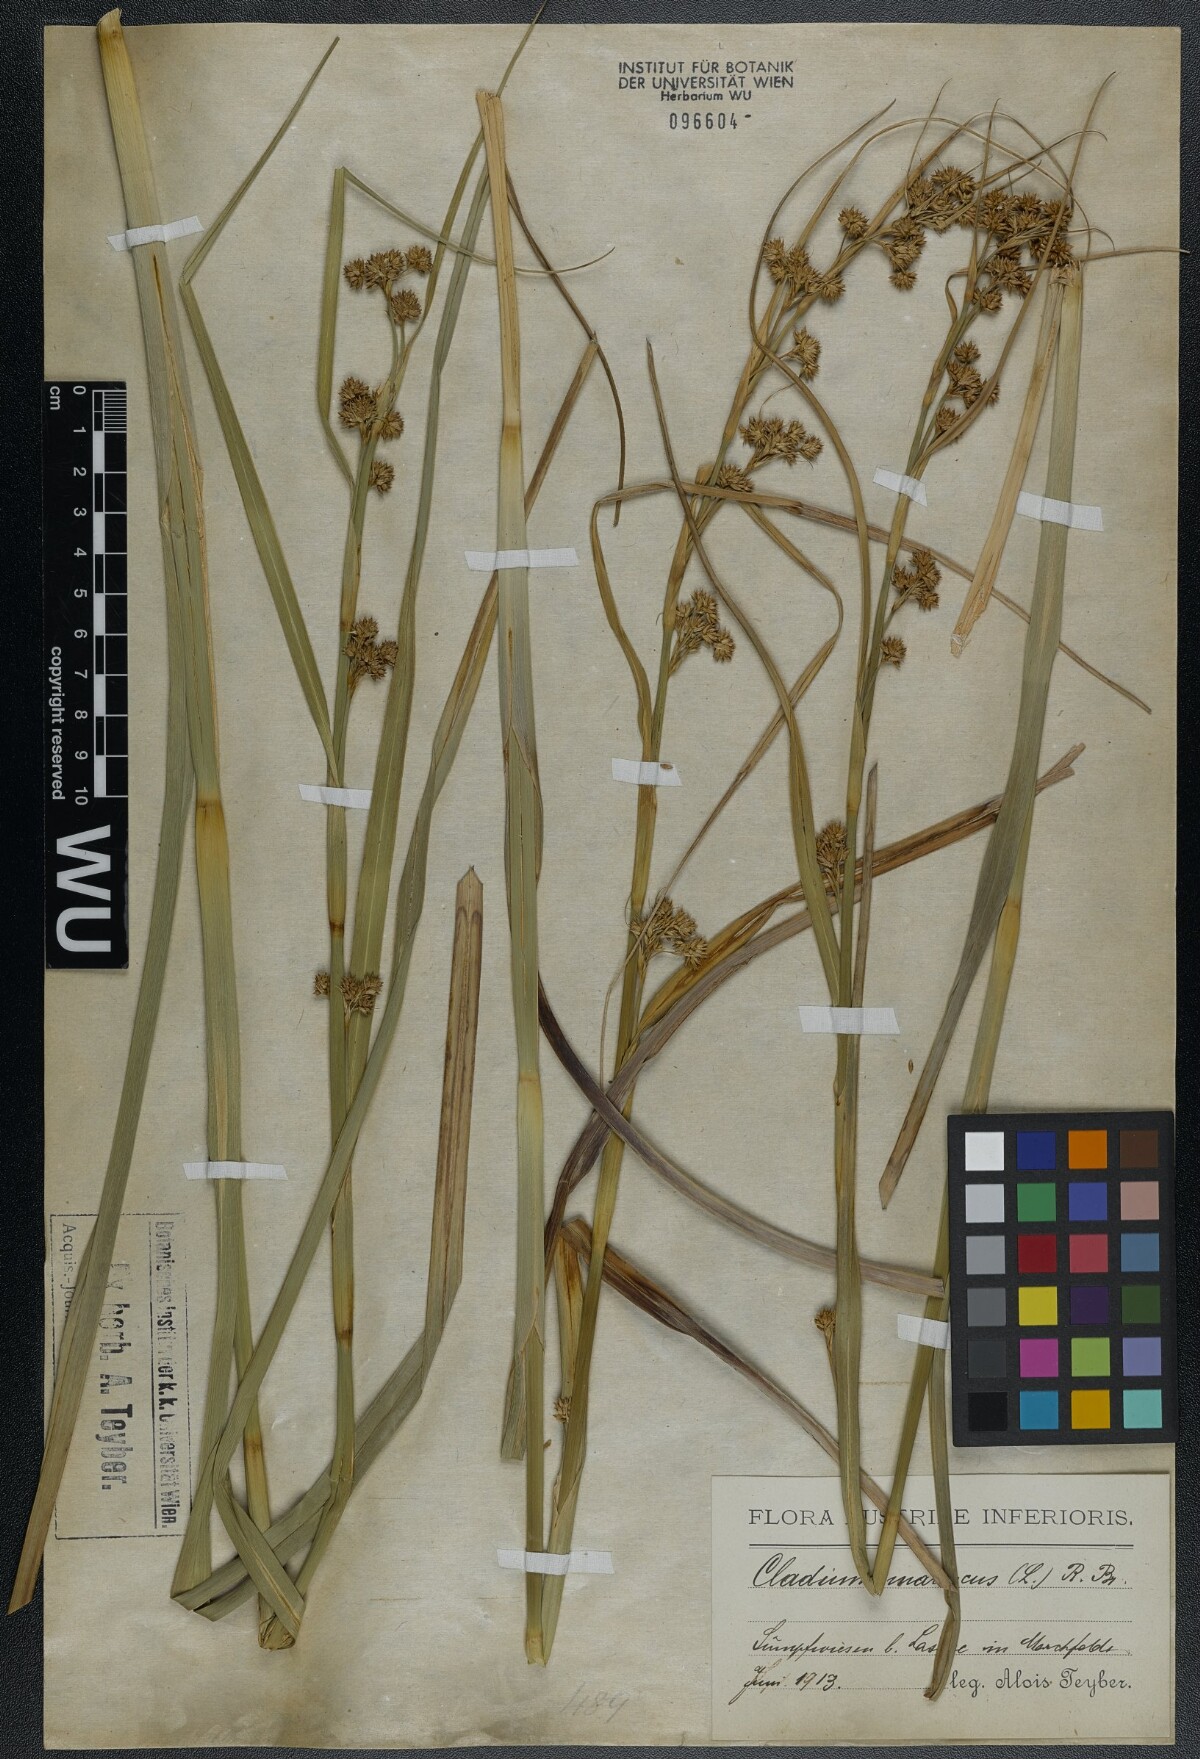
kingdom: Plantae
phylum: Tracheophyta
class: Liliopsida
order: Poales
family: Cyperaceae
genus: Cladium
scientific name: Cladium mariscus
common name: Great fen-sedge
